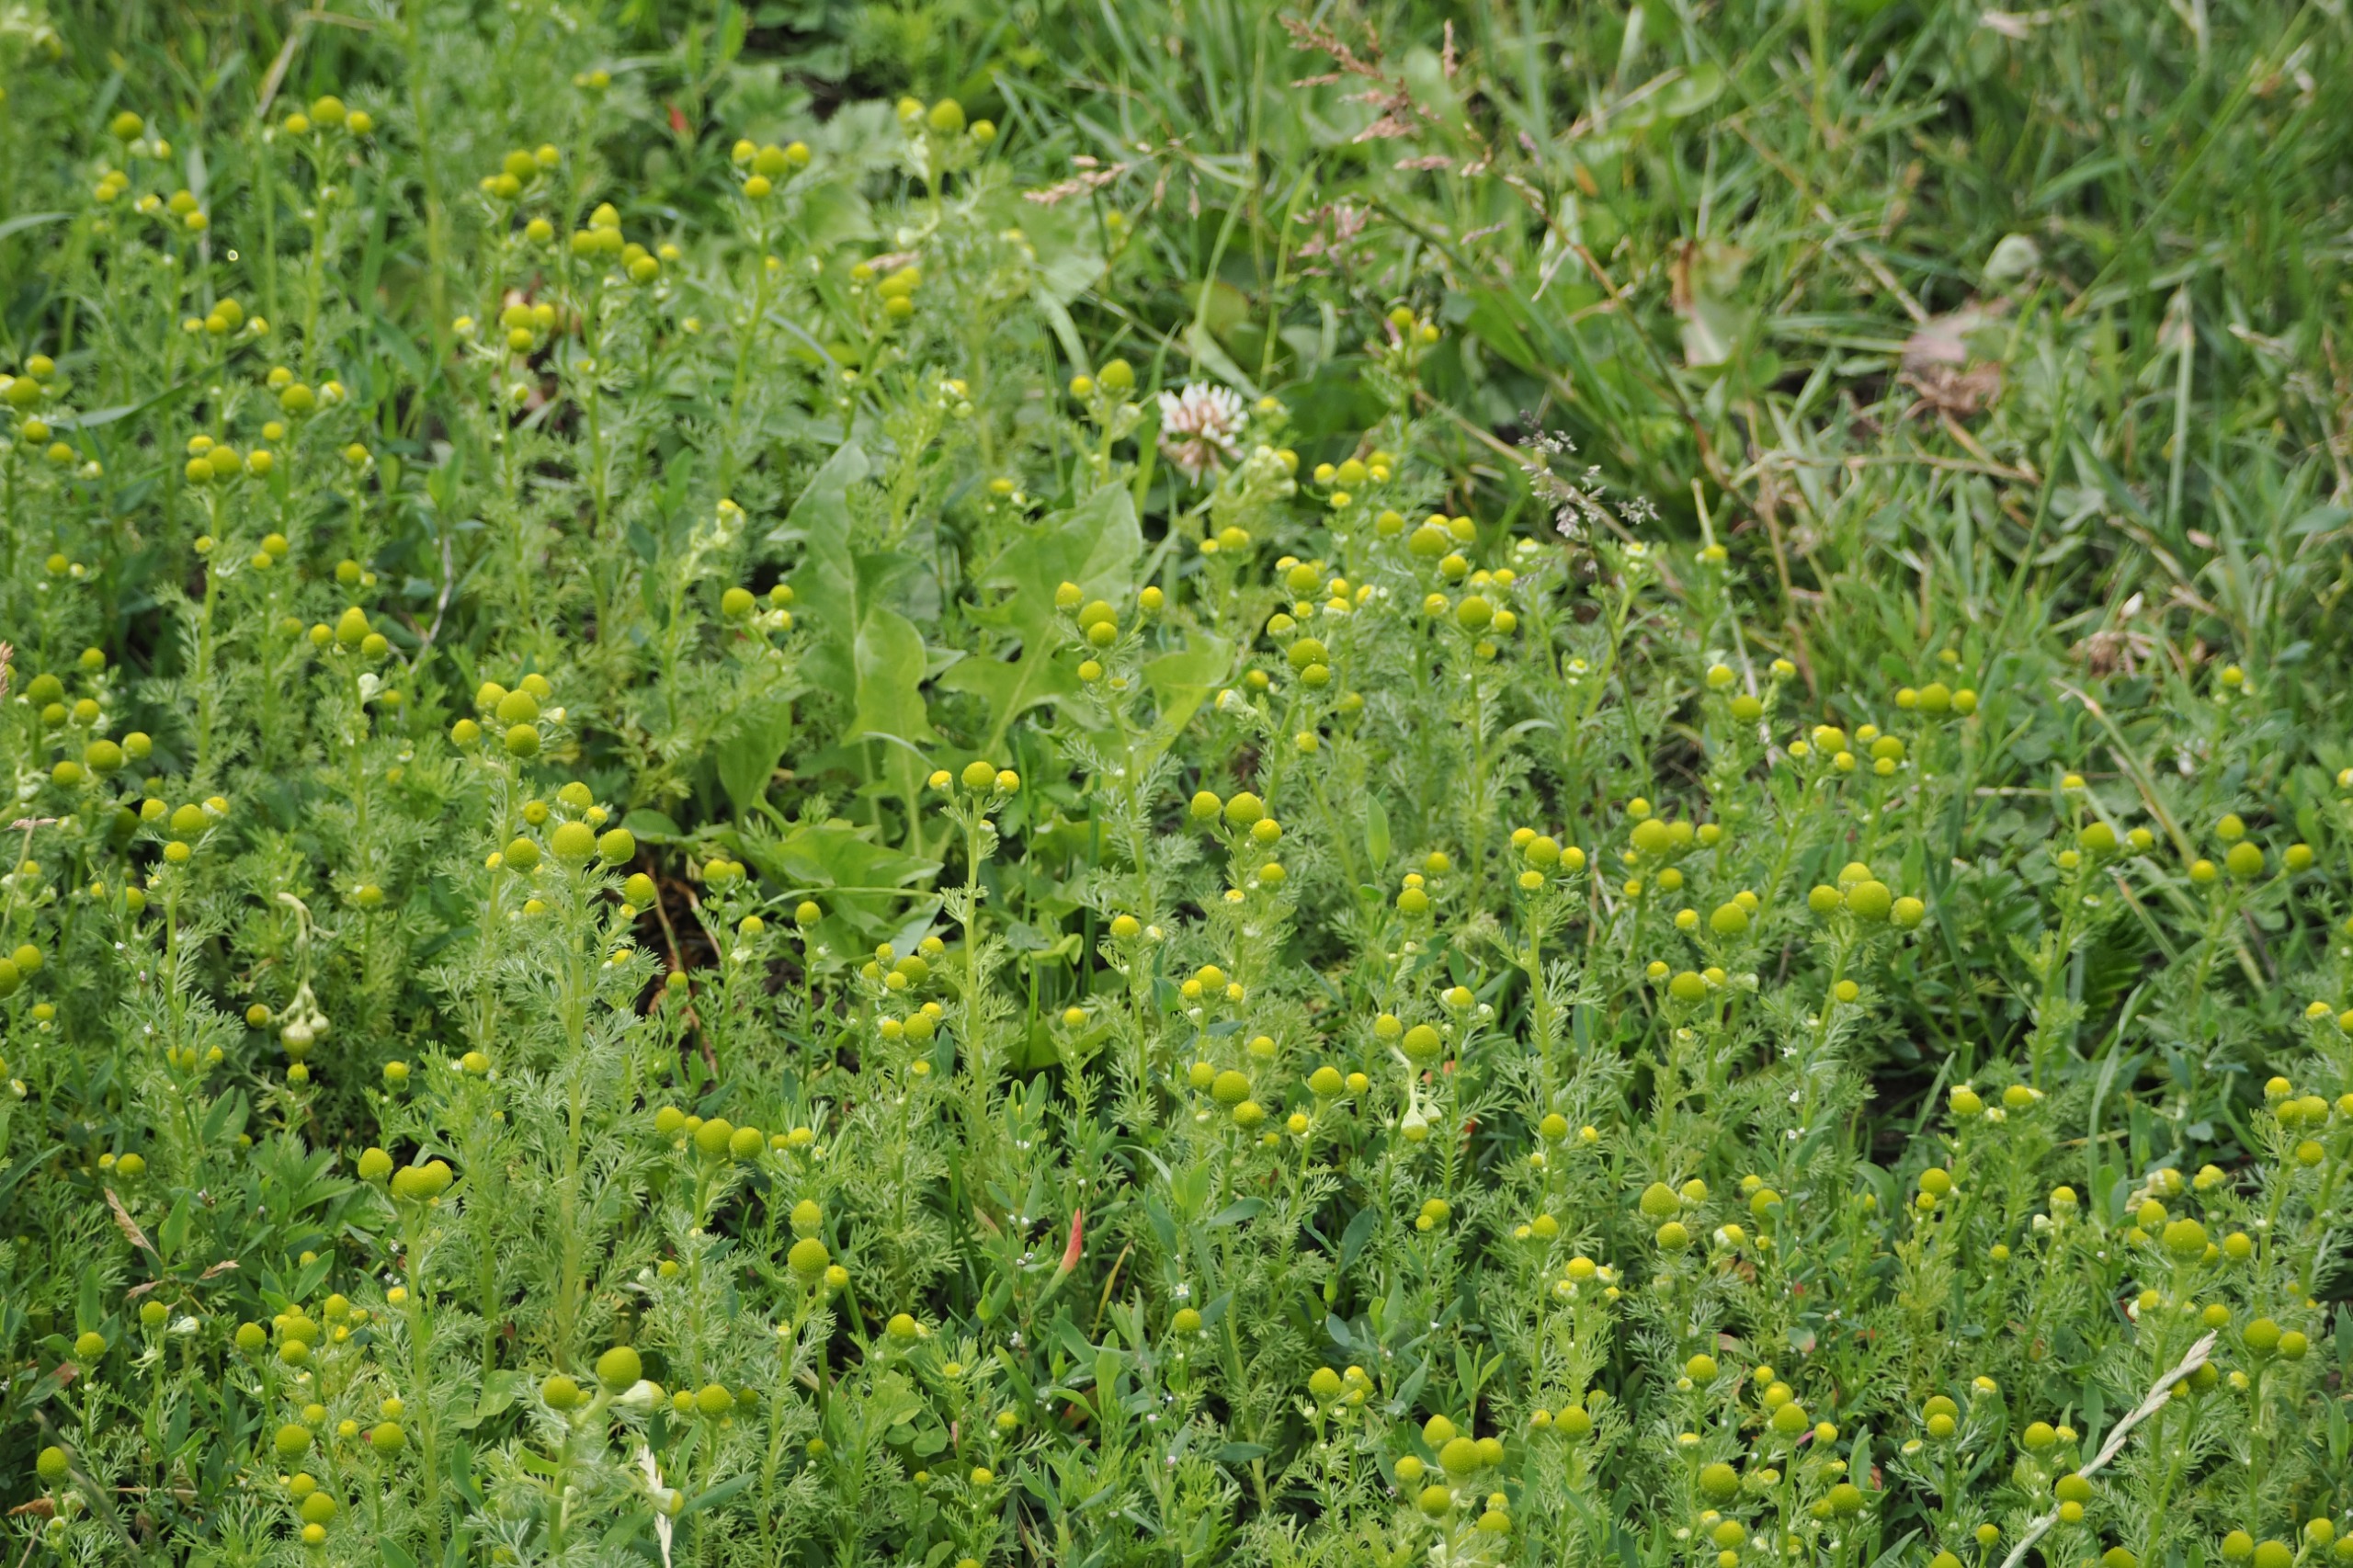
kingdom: Plantae
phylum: Tracheophyta
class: Magnoliopsida
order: Asterales
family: Asteraceae
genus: Matricaria
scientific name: Matricaria discoidea
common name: Skive-kamille
